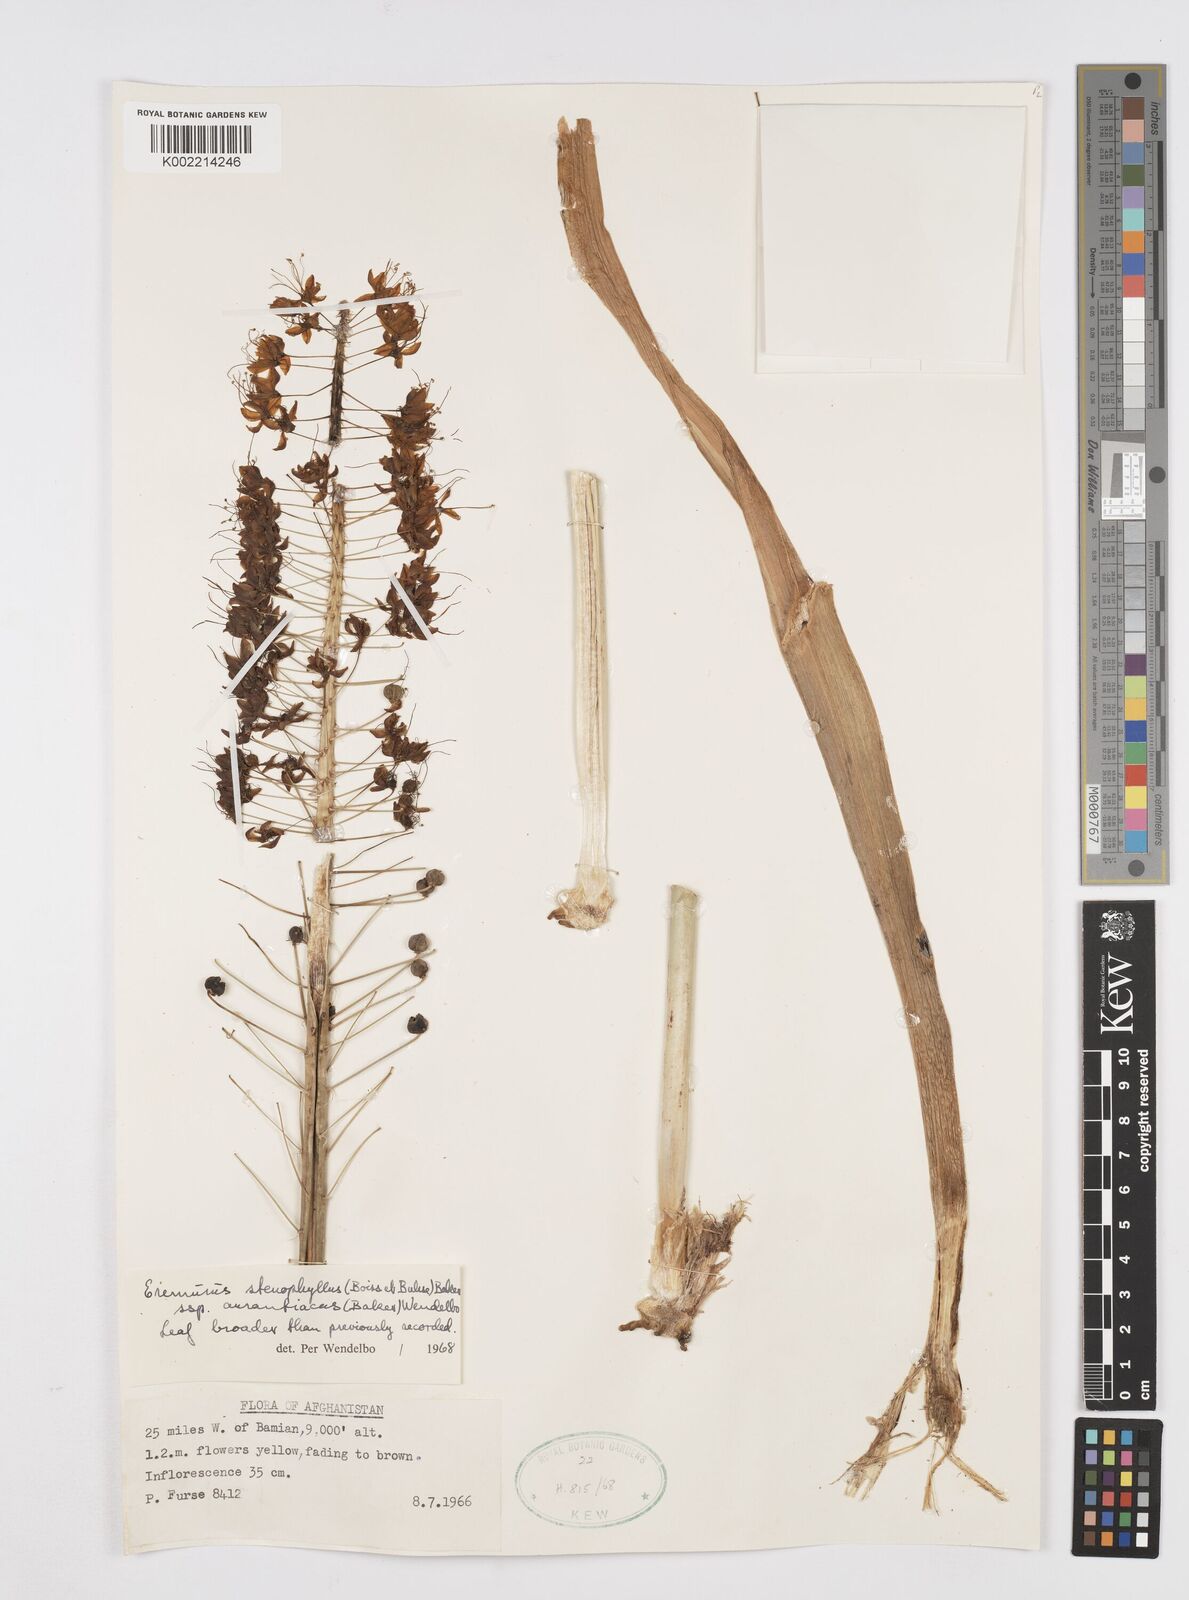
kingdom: Plantae
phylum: Tracheophyta
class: Liliopsida
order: Asparagales
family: Asphodelaceae
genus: Eremurus
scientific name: Eremurus stenophyllus
